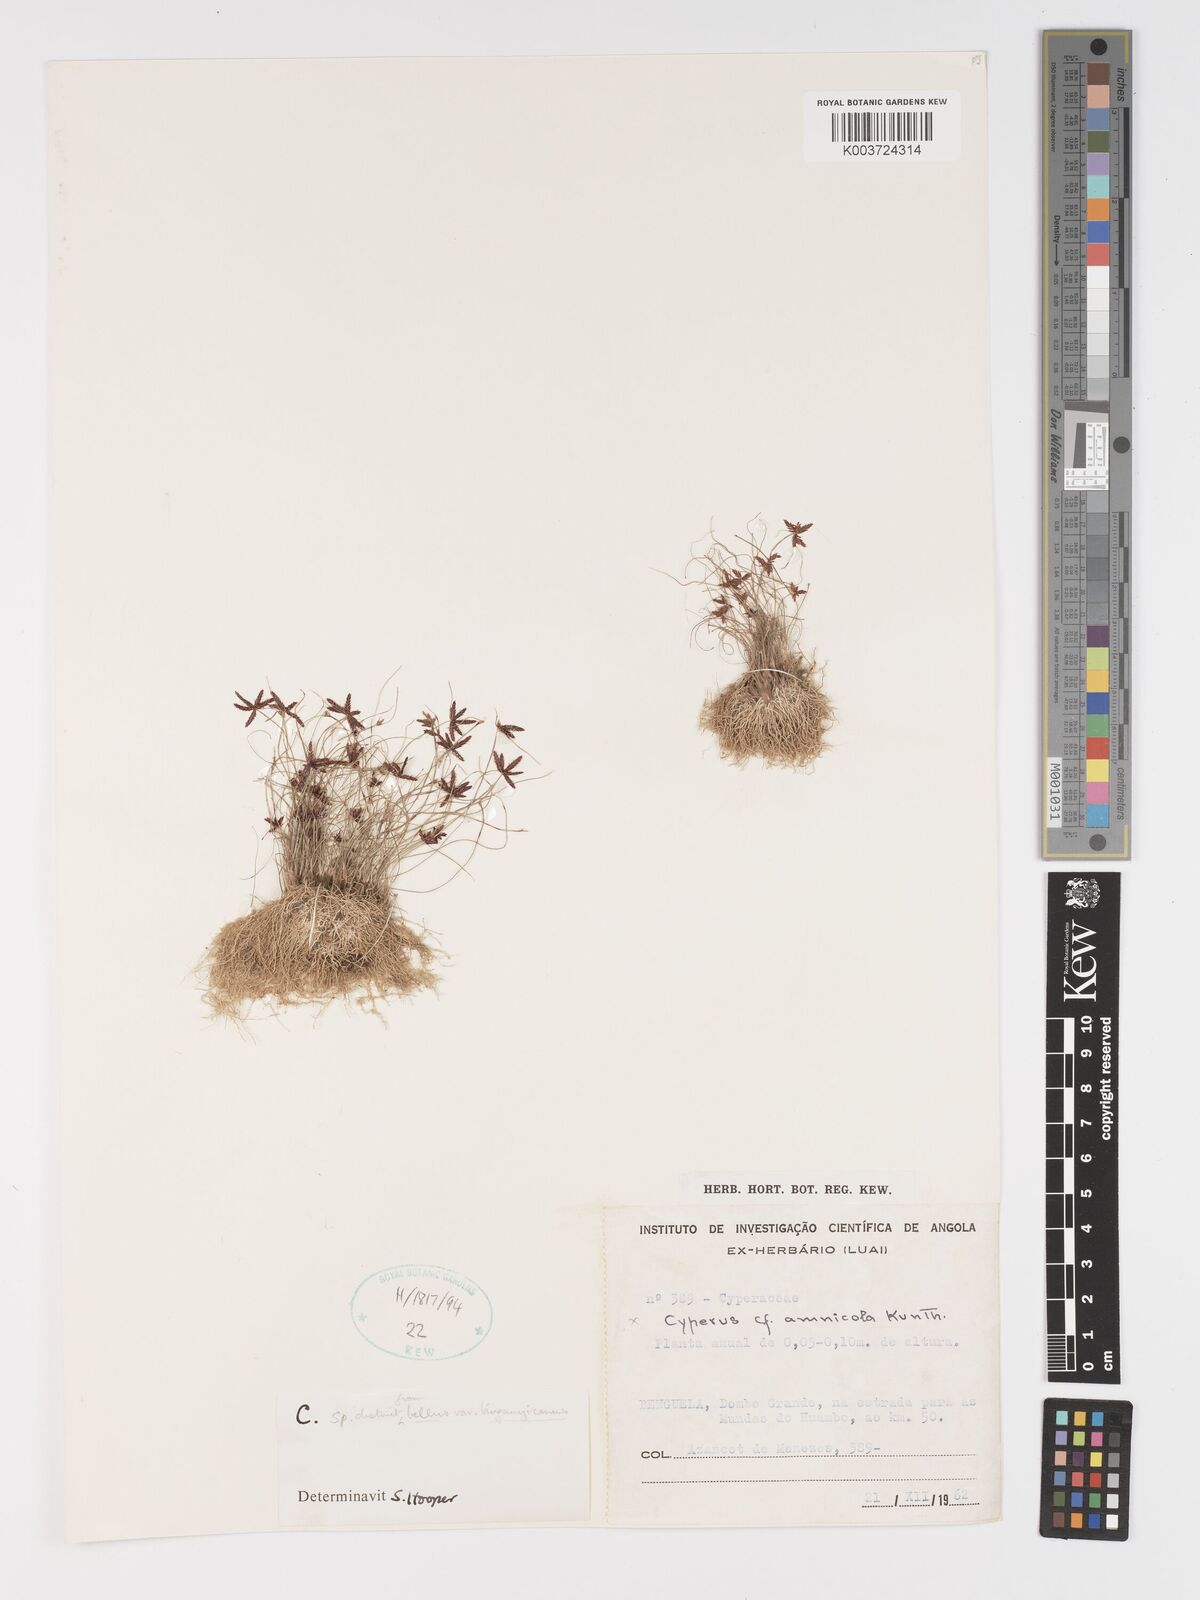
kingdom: Plantae
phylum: Tracheophyta
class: Liliopsida
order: Poales
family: Cyperaceae
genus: Cyperus
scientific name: Cyperus
